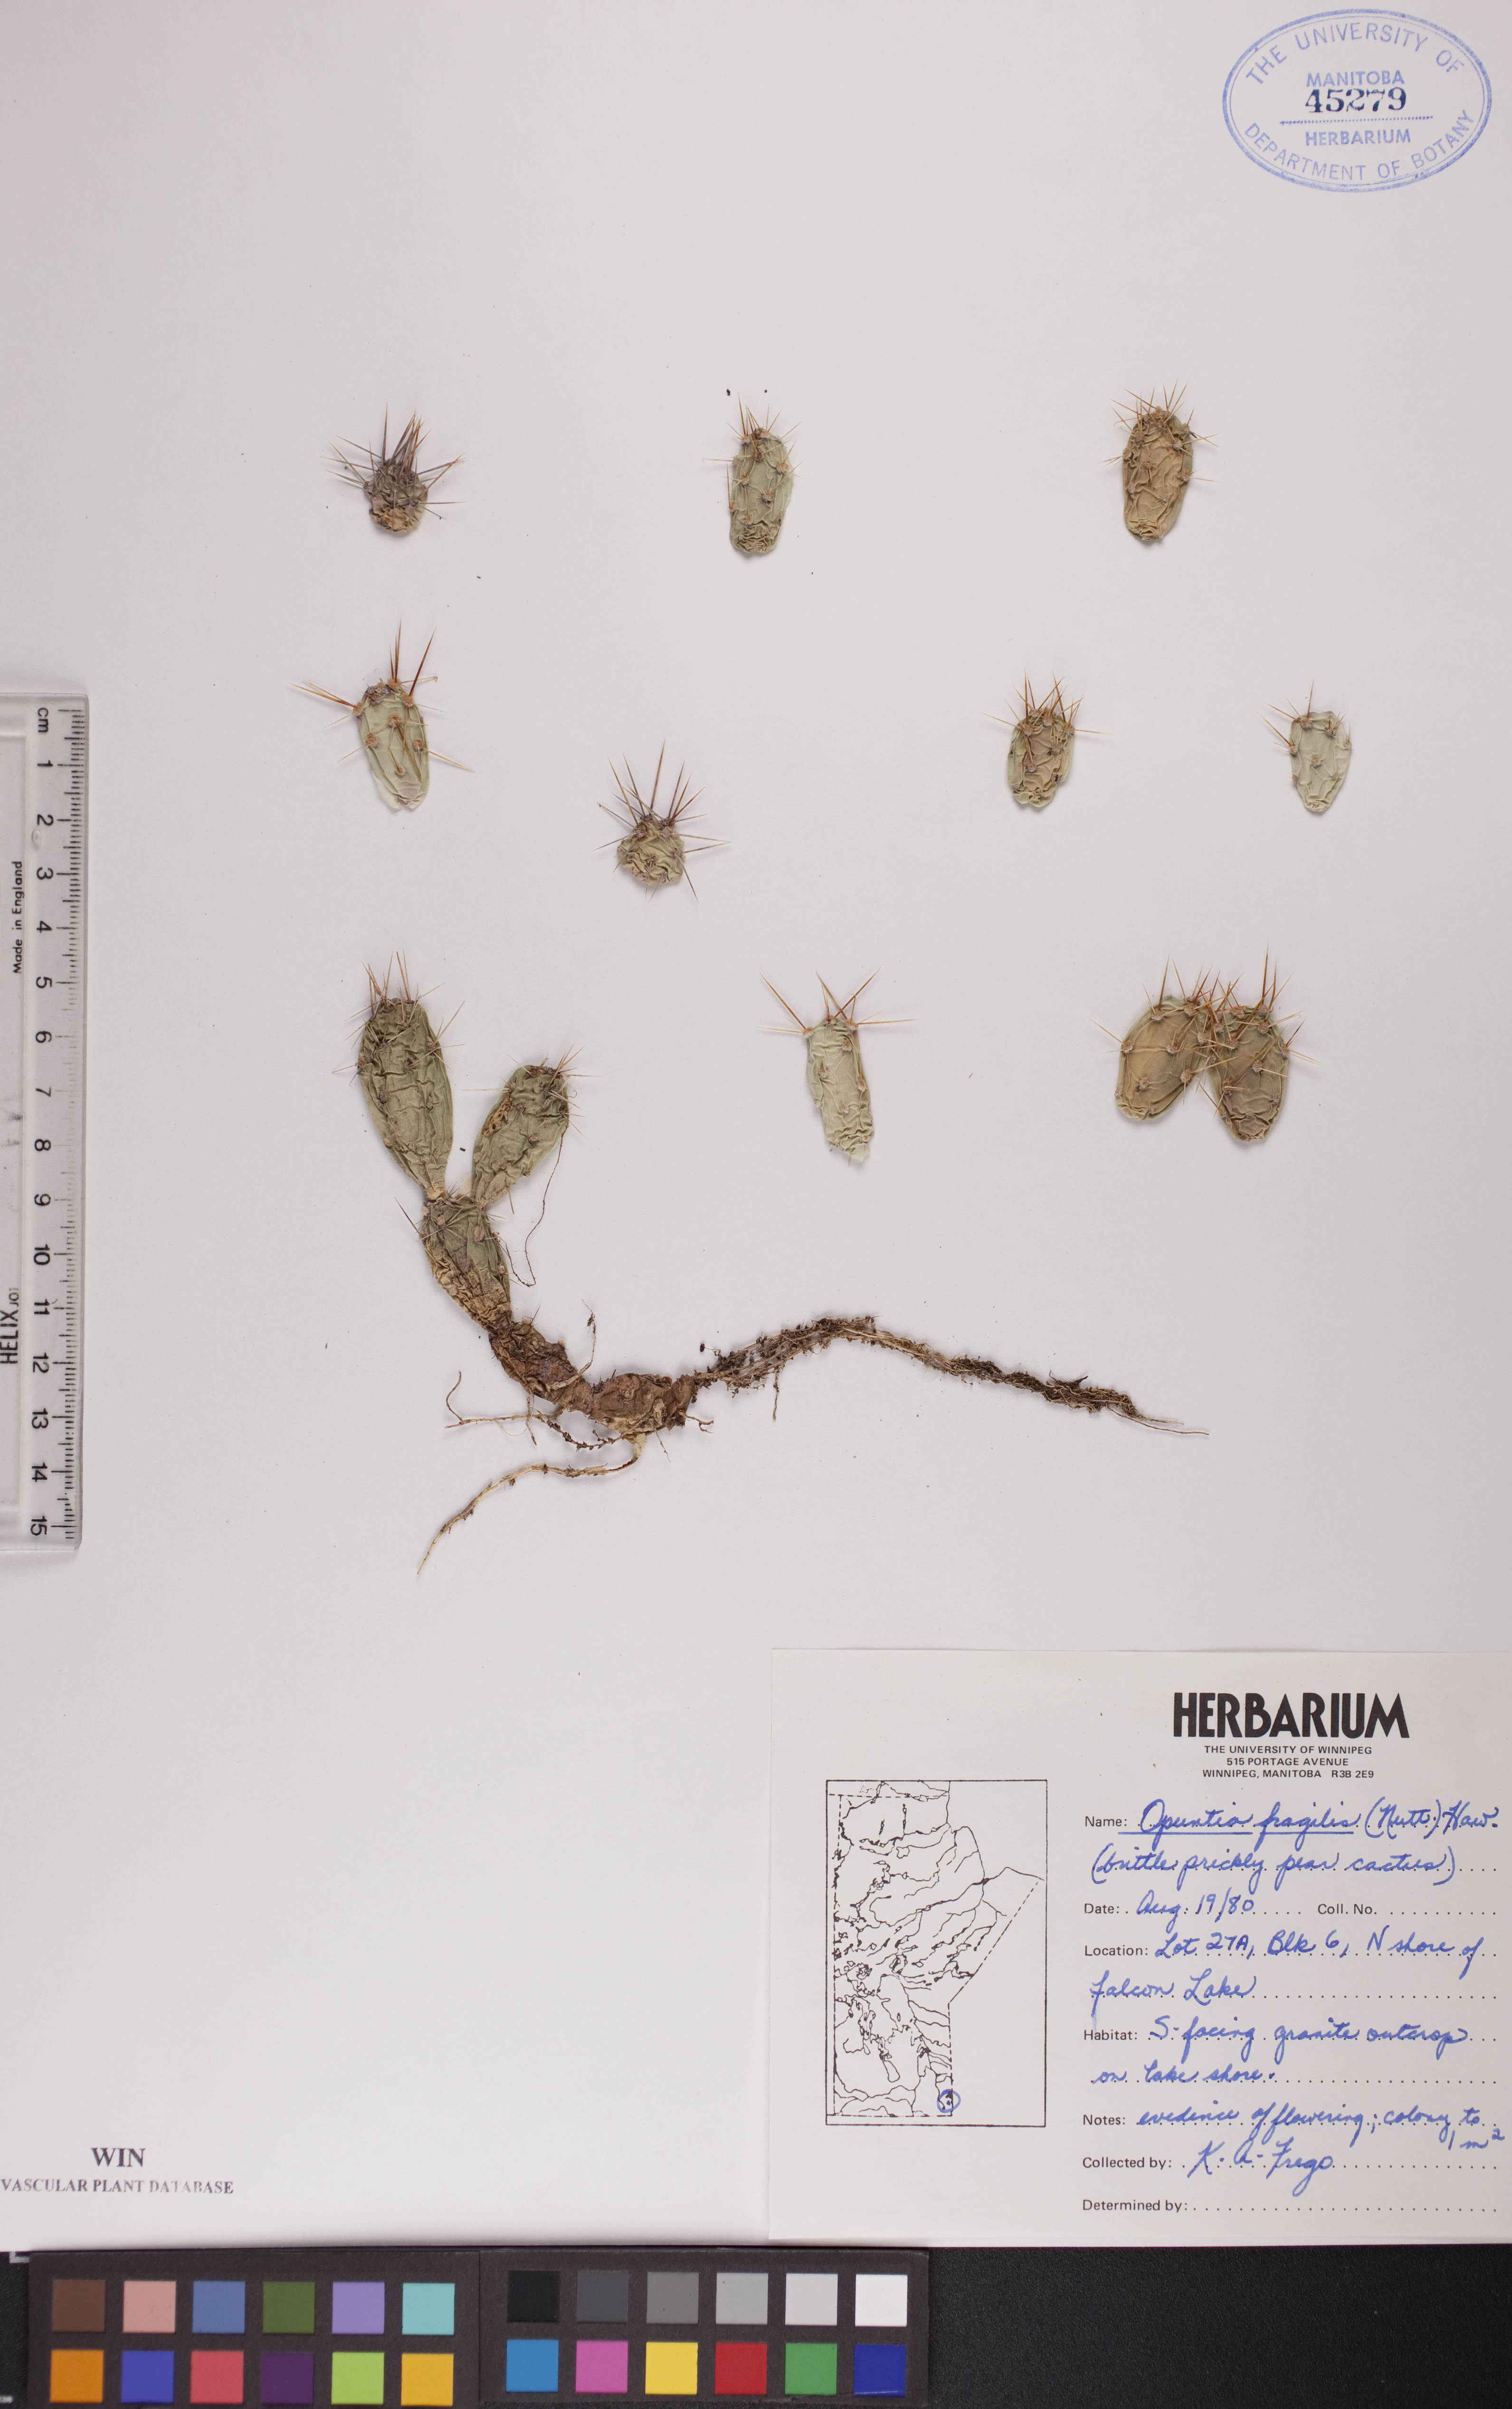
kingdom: Plantae
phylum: Tracheophyta
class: Magnoliopsida
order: Caryophyllales
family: Cactaceae
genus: Opuntia
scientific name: Opuntia fragilis
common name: Brittle cactus
